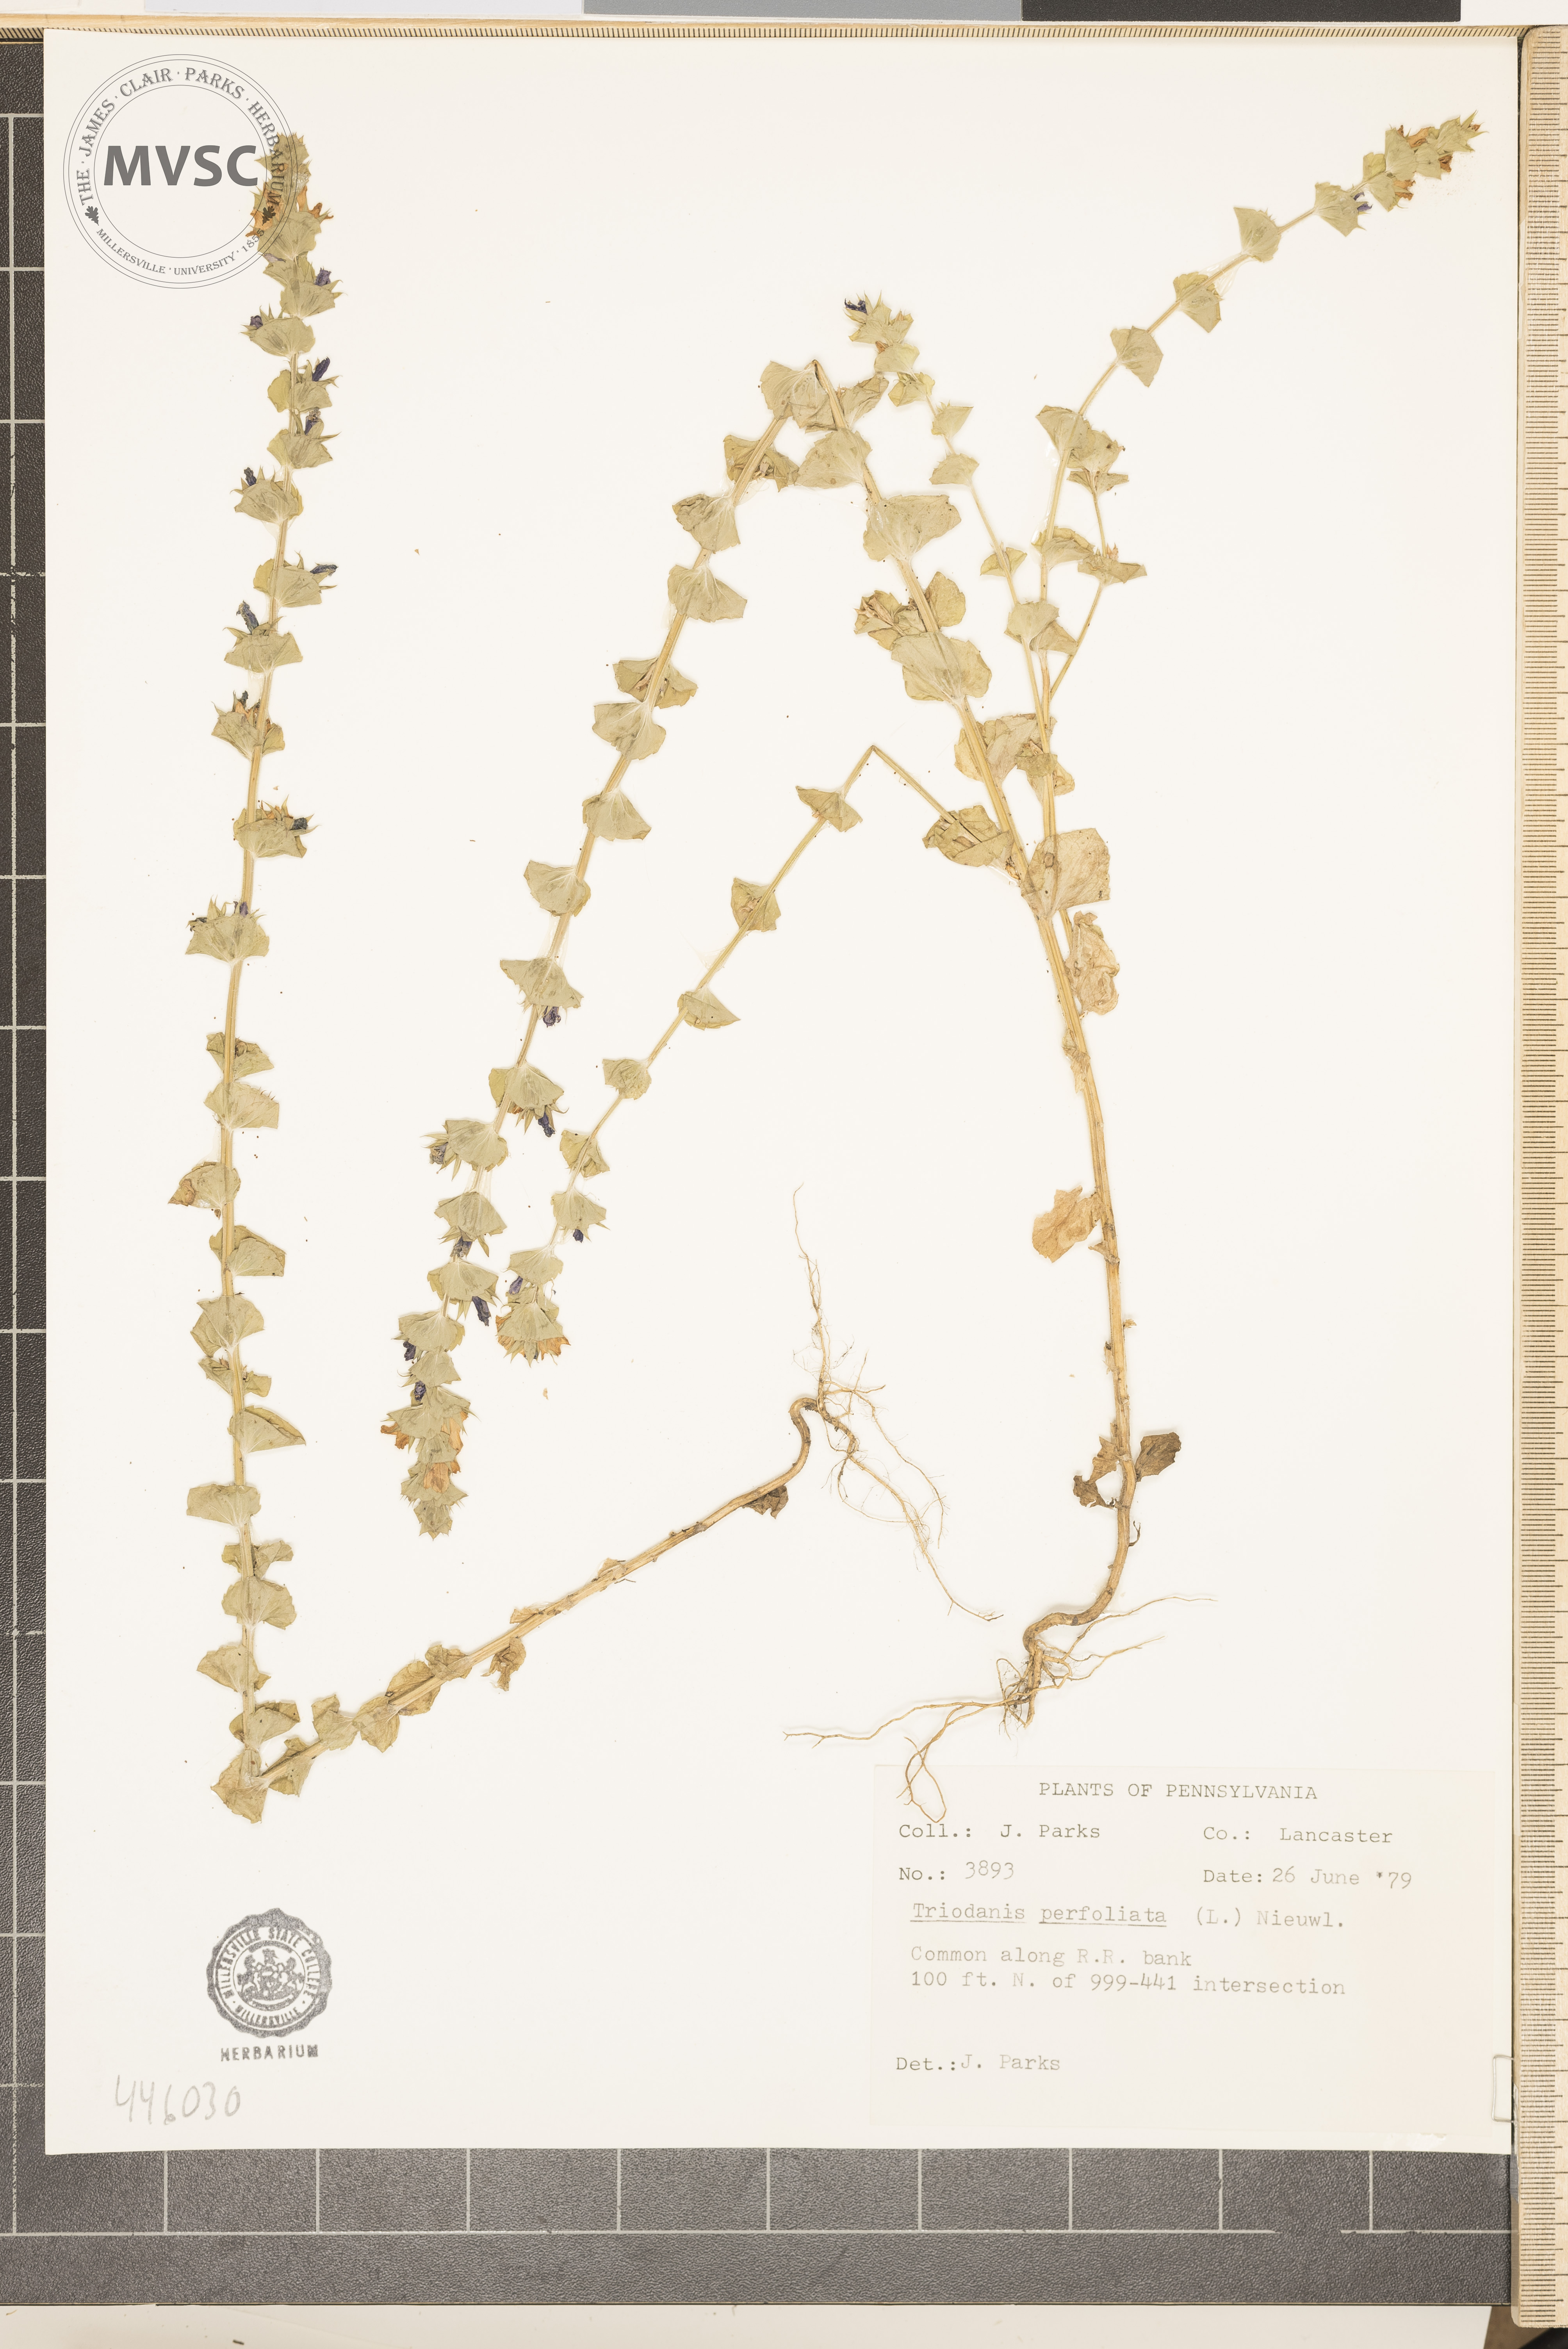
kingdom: Plantae
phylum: Tracheophyta
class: Magnoliopsida
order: Asterales
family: Campanulaceae
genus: Triodanis
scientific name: Triodanis perfoliata
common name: Clasping venus' looking-glass
